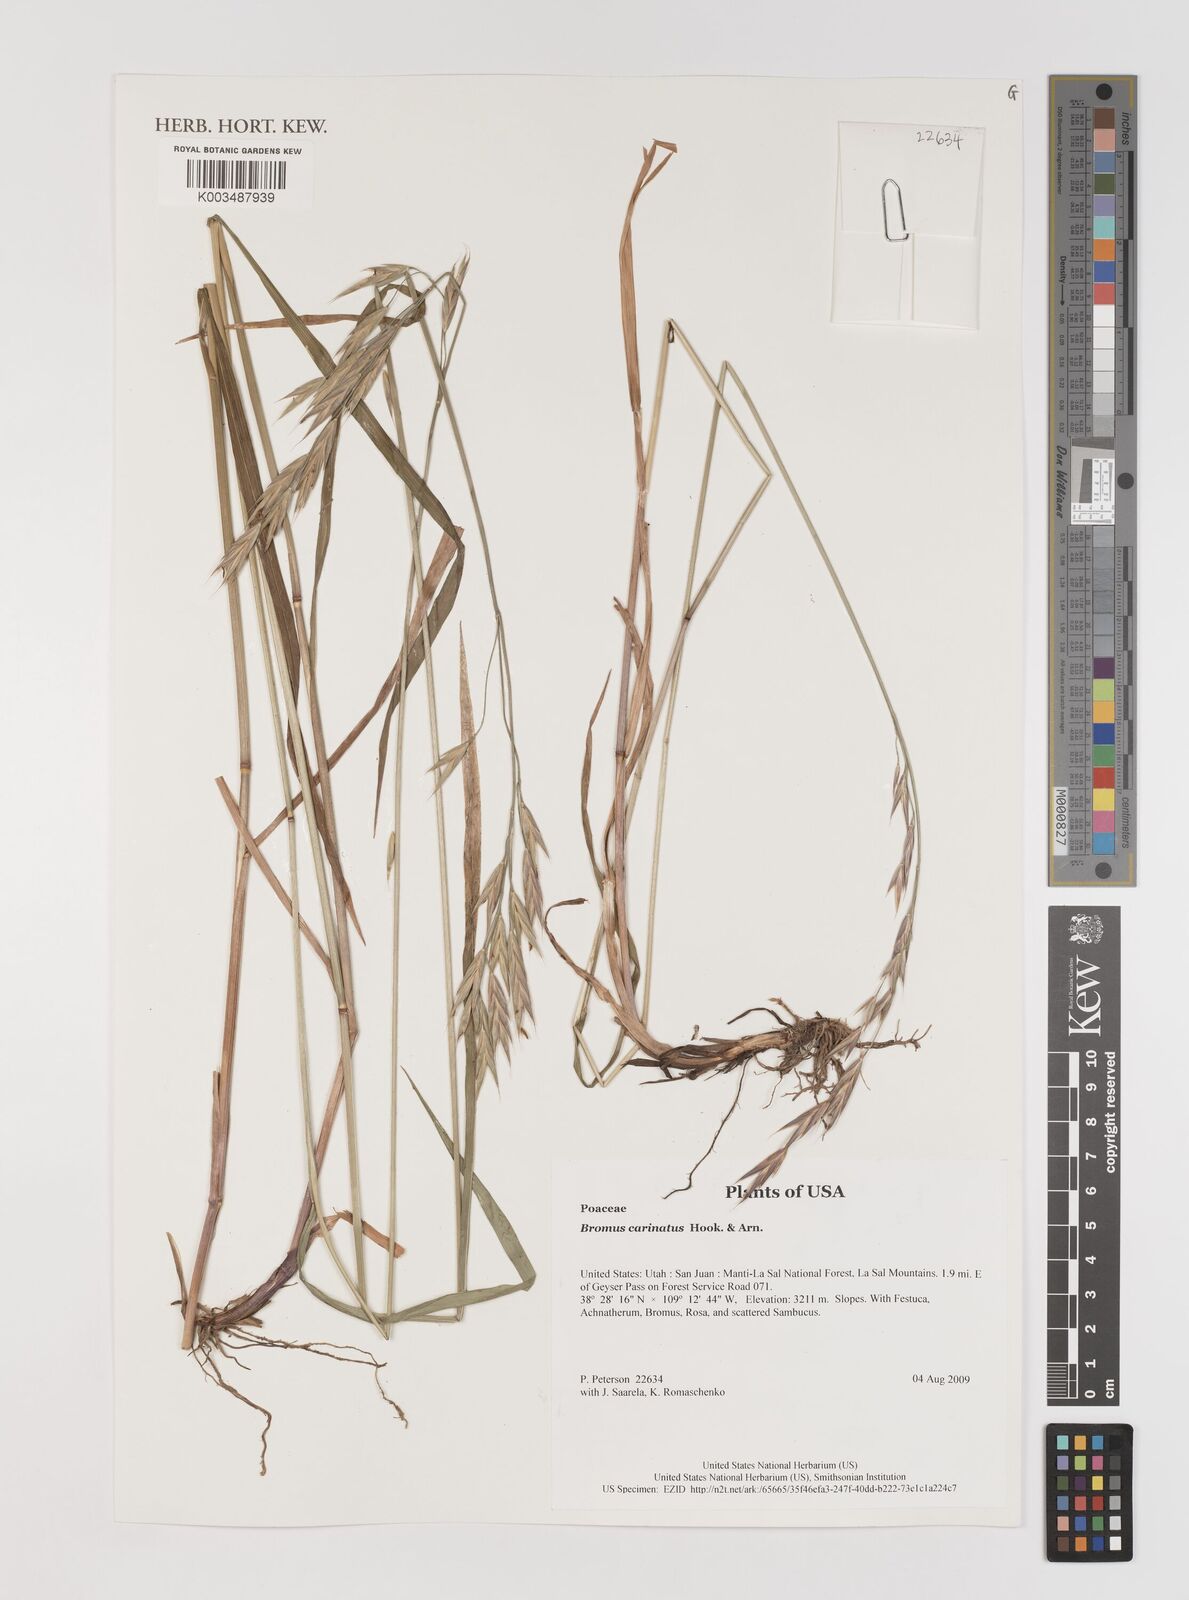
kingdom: Plantae
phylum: Tracheophyta
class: Liliopsida
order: Poales
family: Poaceae
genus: Bromus
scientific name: Bromus carinatus
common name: Mountain brome
